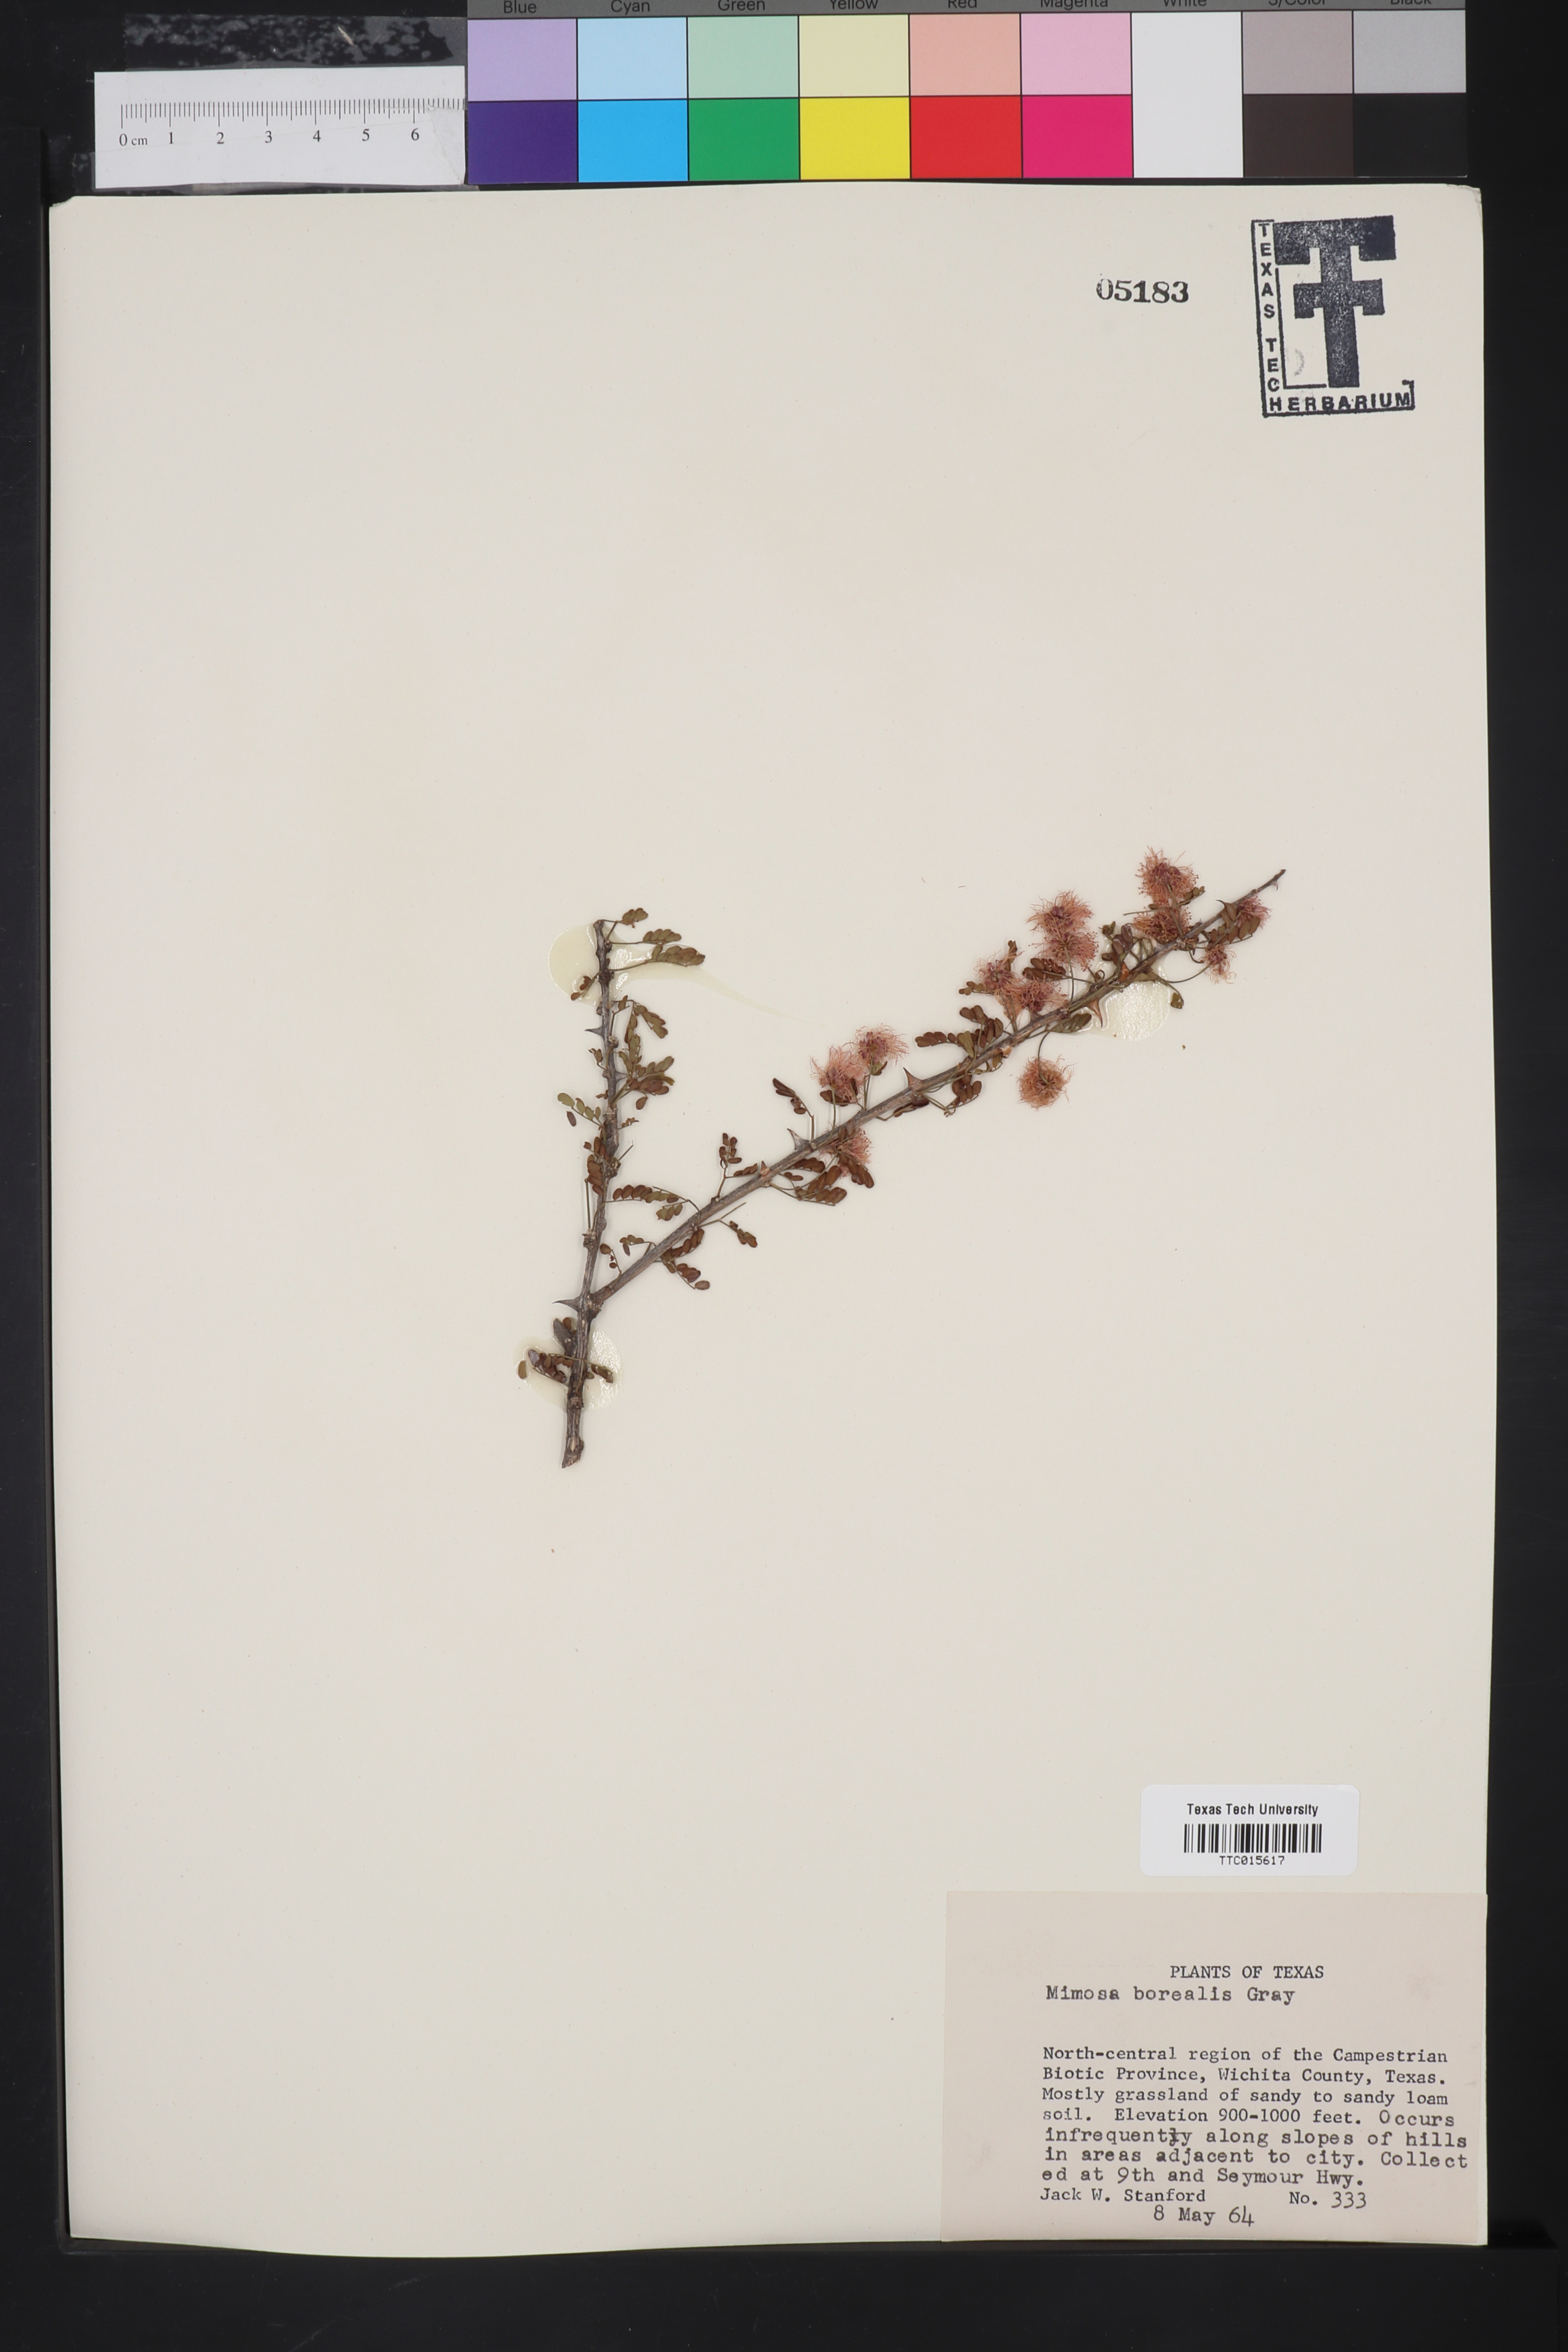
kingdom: Plantae
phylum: Tracheophyta
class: Magnoliopsida
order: Fabales
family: Fabaceae
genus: Mimosa
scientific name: Mimosa borealis
